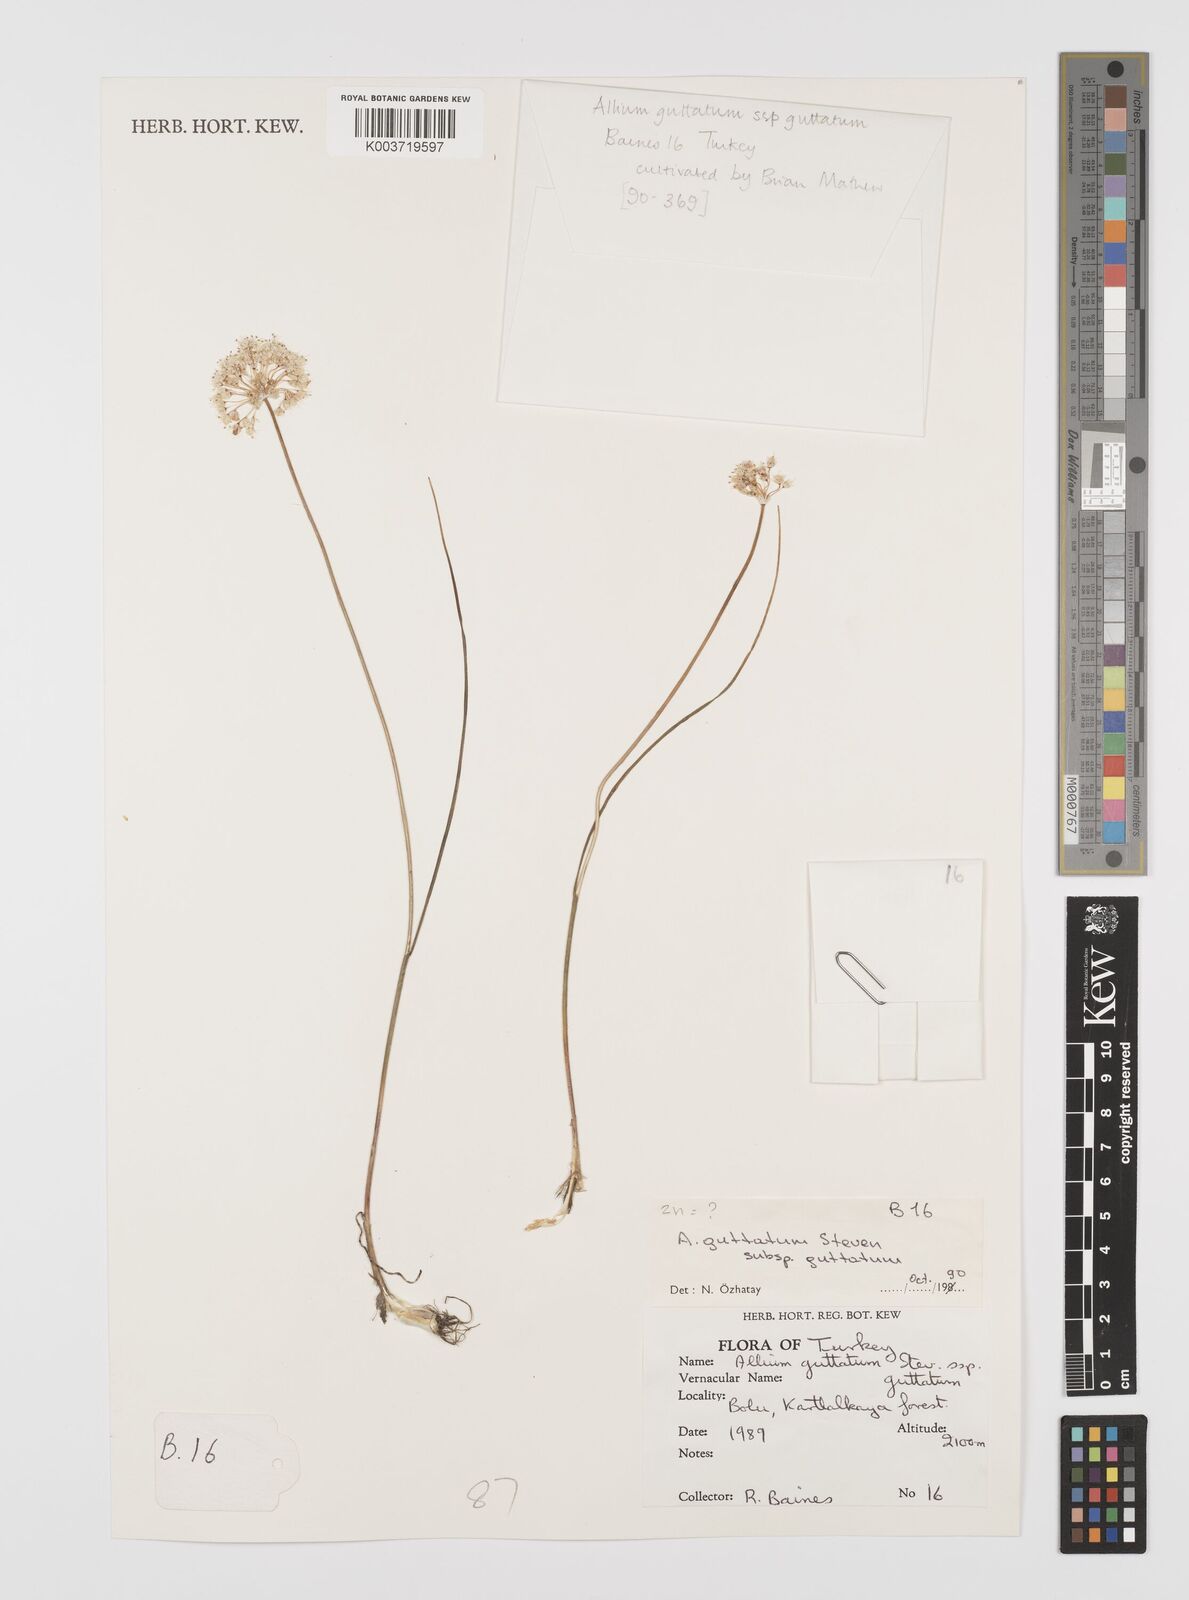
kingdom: Plantae
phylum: Tracheophyta
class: Liliopsida
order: Asparagales
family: Amaryllidaceae
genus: Allium
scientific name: Allium guttatum
